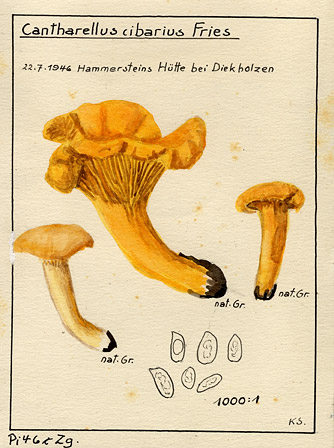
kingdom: Fungi
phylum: Basidiomycota
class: Agaricomycetes
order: Cantharellales
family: Hydnaceae
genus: Cantharellus
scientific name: Cantharellus cibarius
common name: Chanterelle
